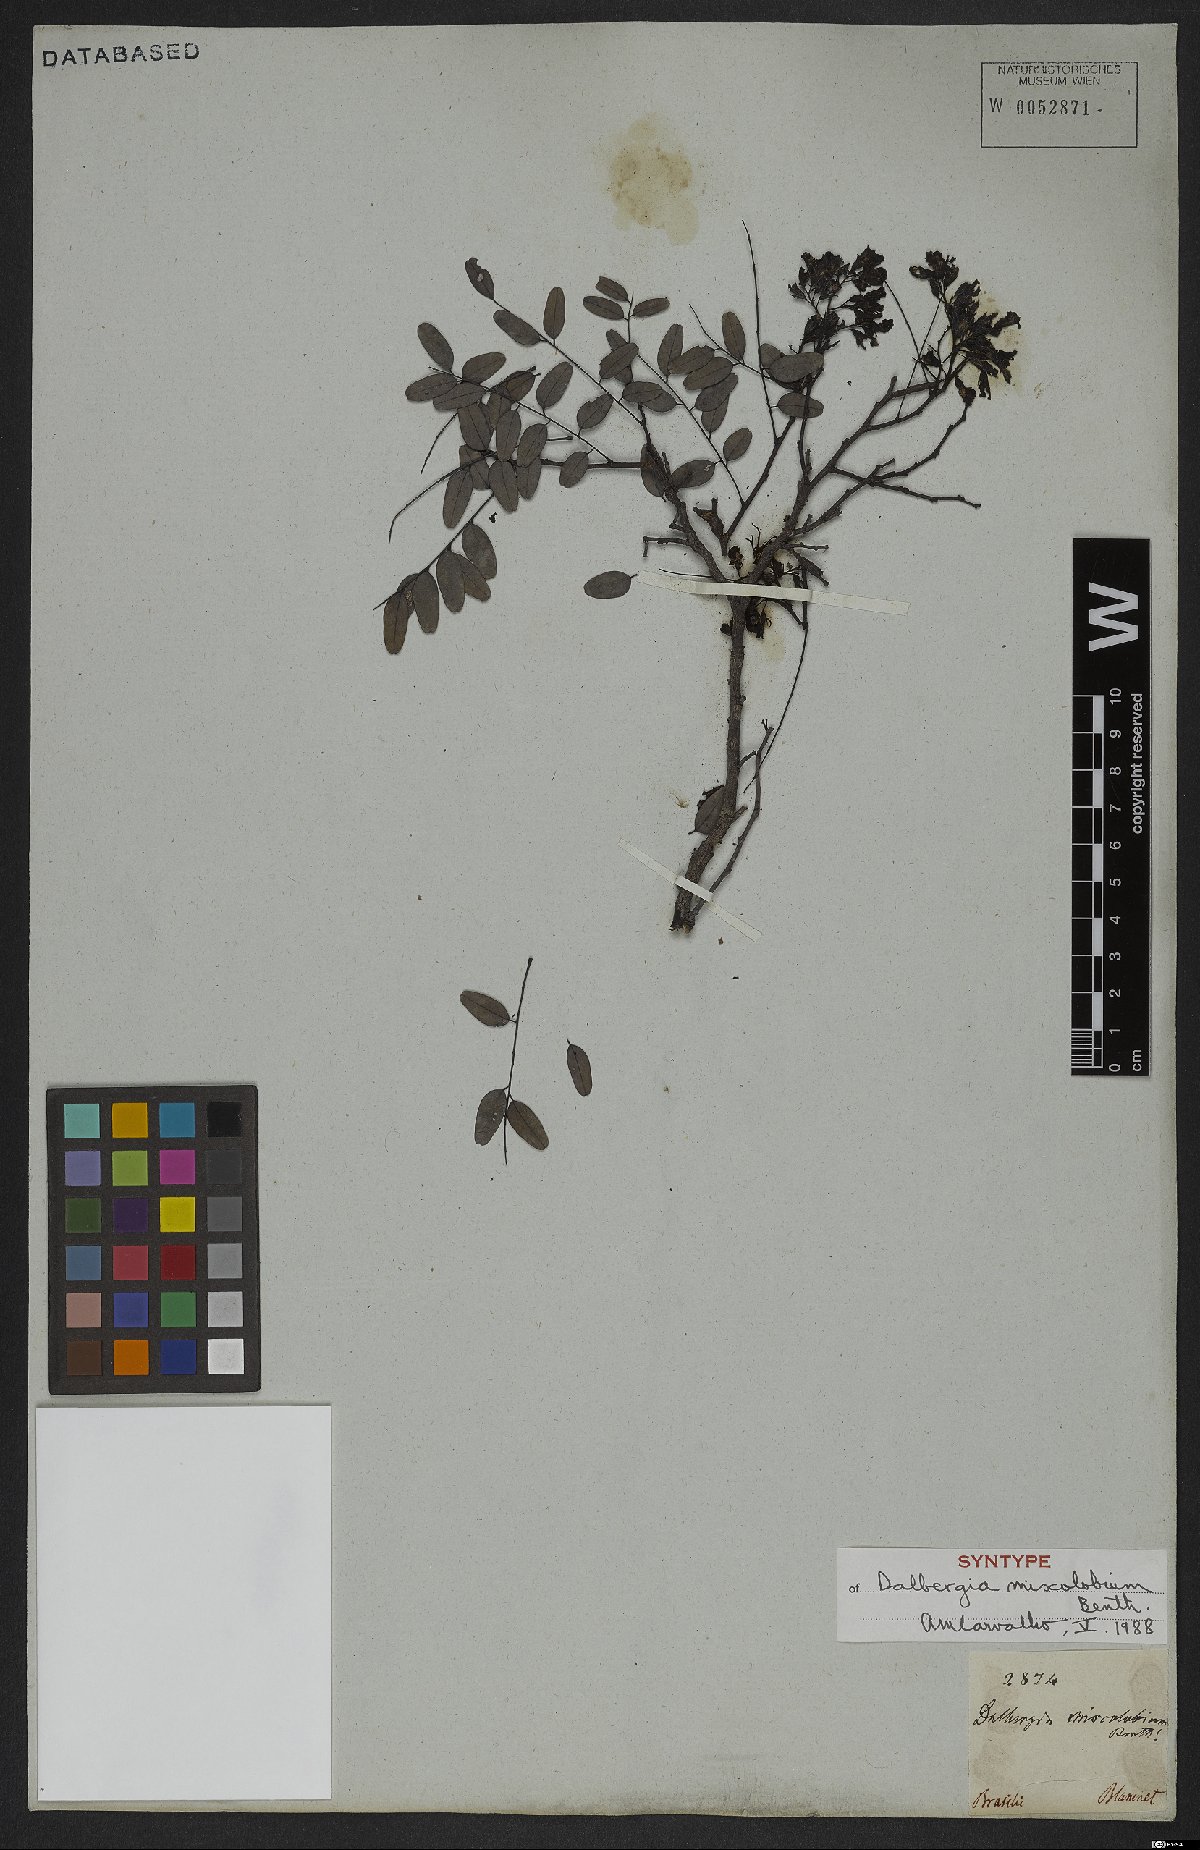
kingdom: Plantae
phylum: Tracheophyta
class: Magnoliopsida
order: Fabales
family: Fabaceae
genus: Dalbergia
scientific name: Dalbergia miscolobium
